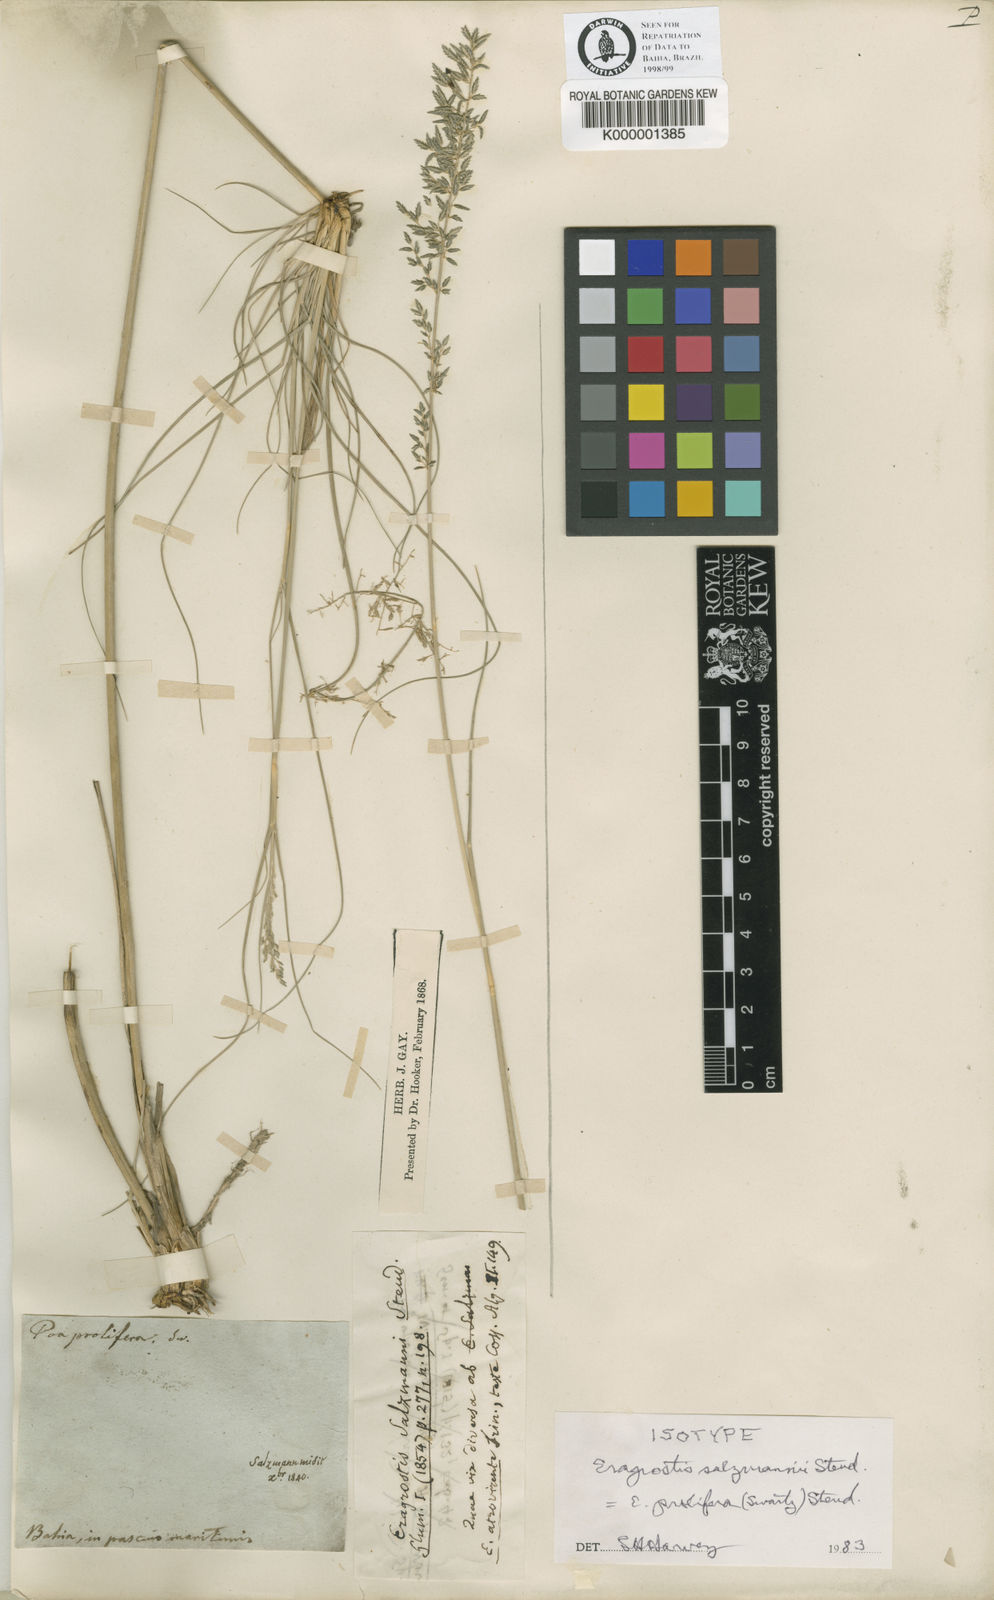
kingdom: Plantae
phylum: Tracheophyta
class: Liliopsida
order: Poales
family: Poaceae
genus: Eragrostis
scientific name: Eragrostis prolifera
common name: Dominican lovegrass
